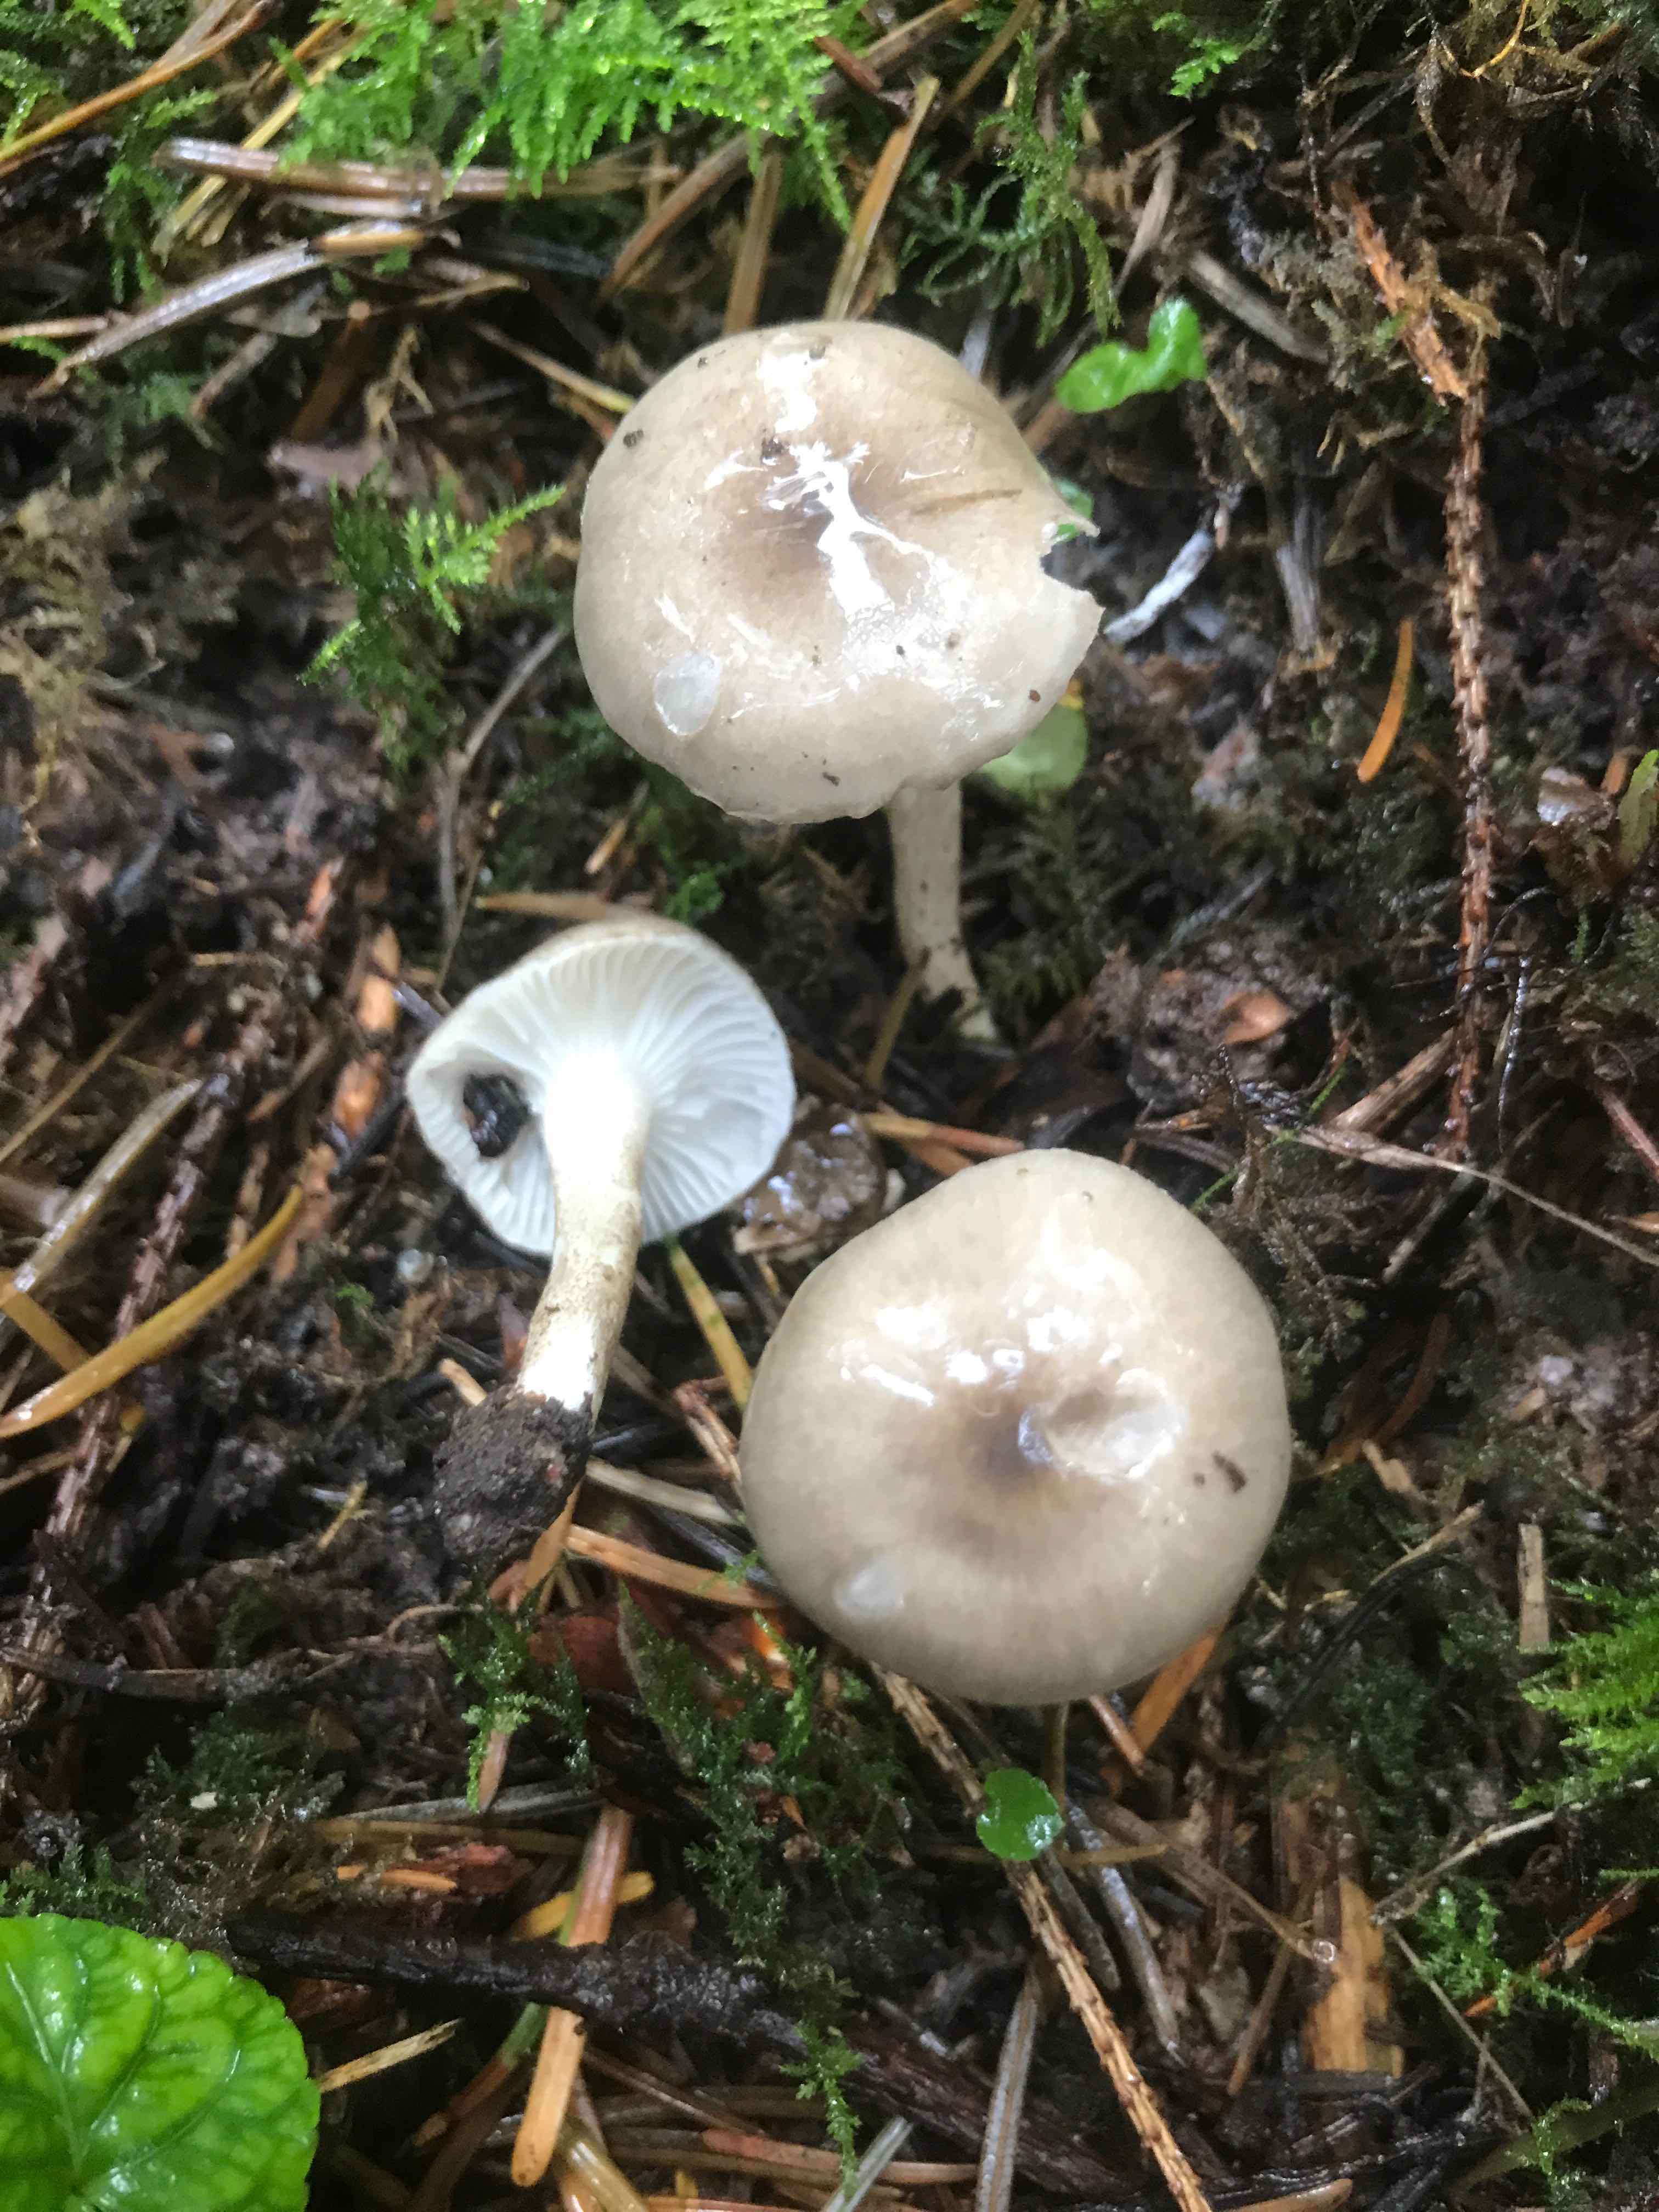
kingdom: Fungi
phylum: Basidiomycota
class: Agaricomycetes
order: Agaricales
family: Hygrophoraceae
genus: Hygrophorus
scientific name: Hygrophorus pustulatus
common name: mørkprikket sneglehat
